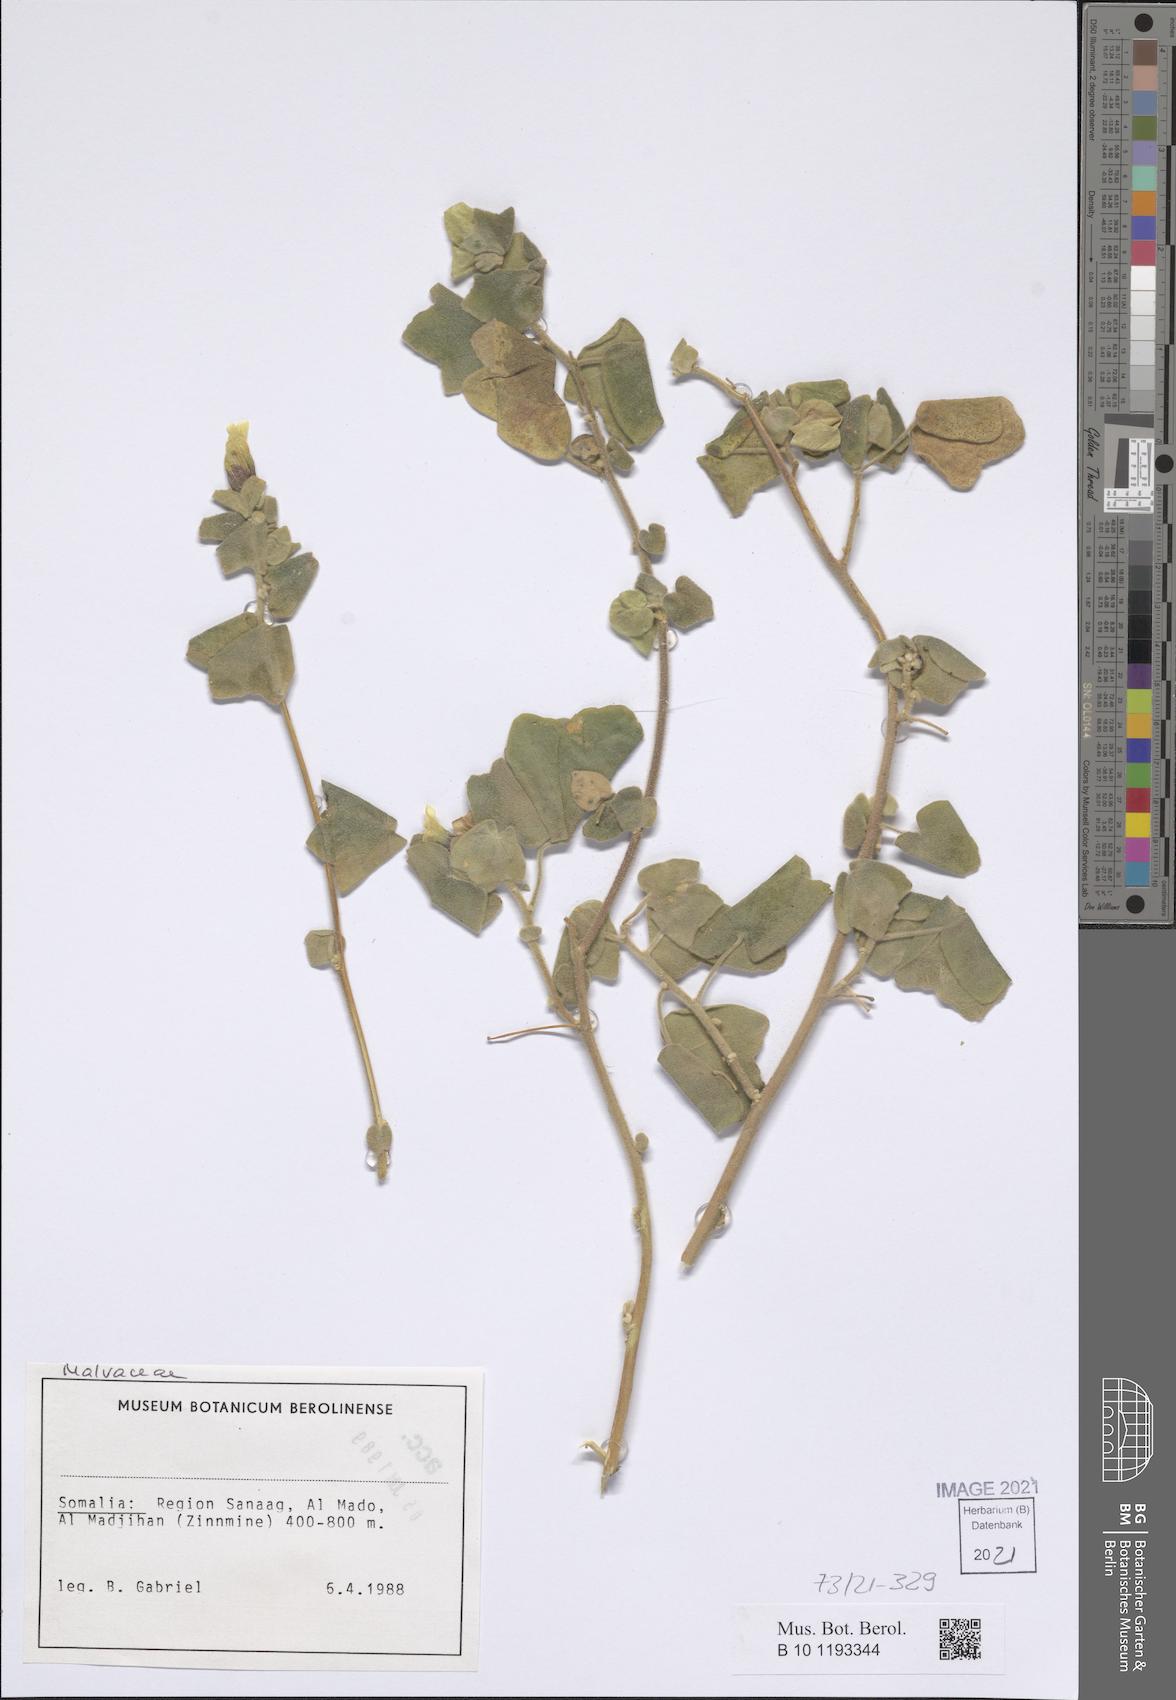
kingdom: Plantae
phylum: Tracheophyta
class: Magnoliopsida
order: Malvales
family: Malvaceae
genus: Senra
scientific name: Senra incana
